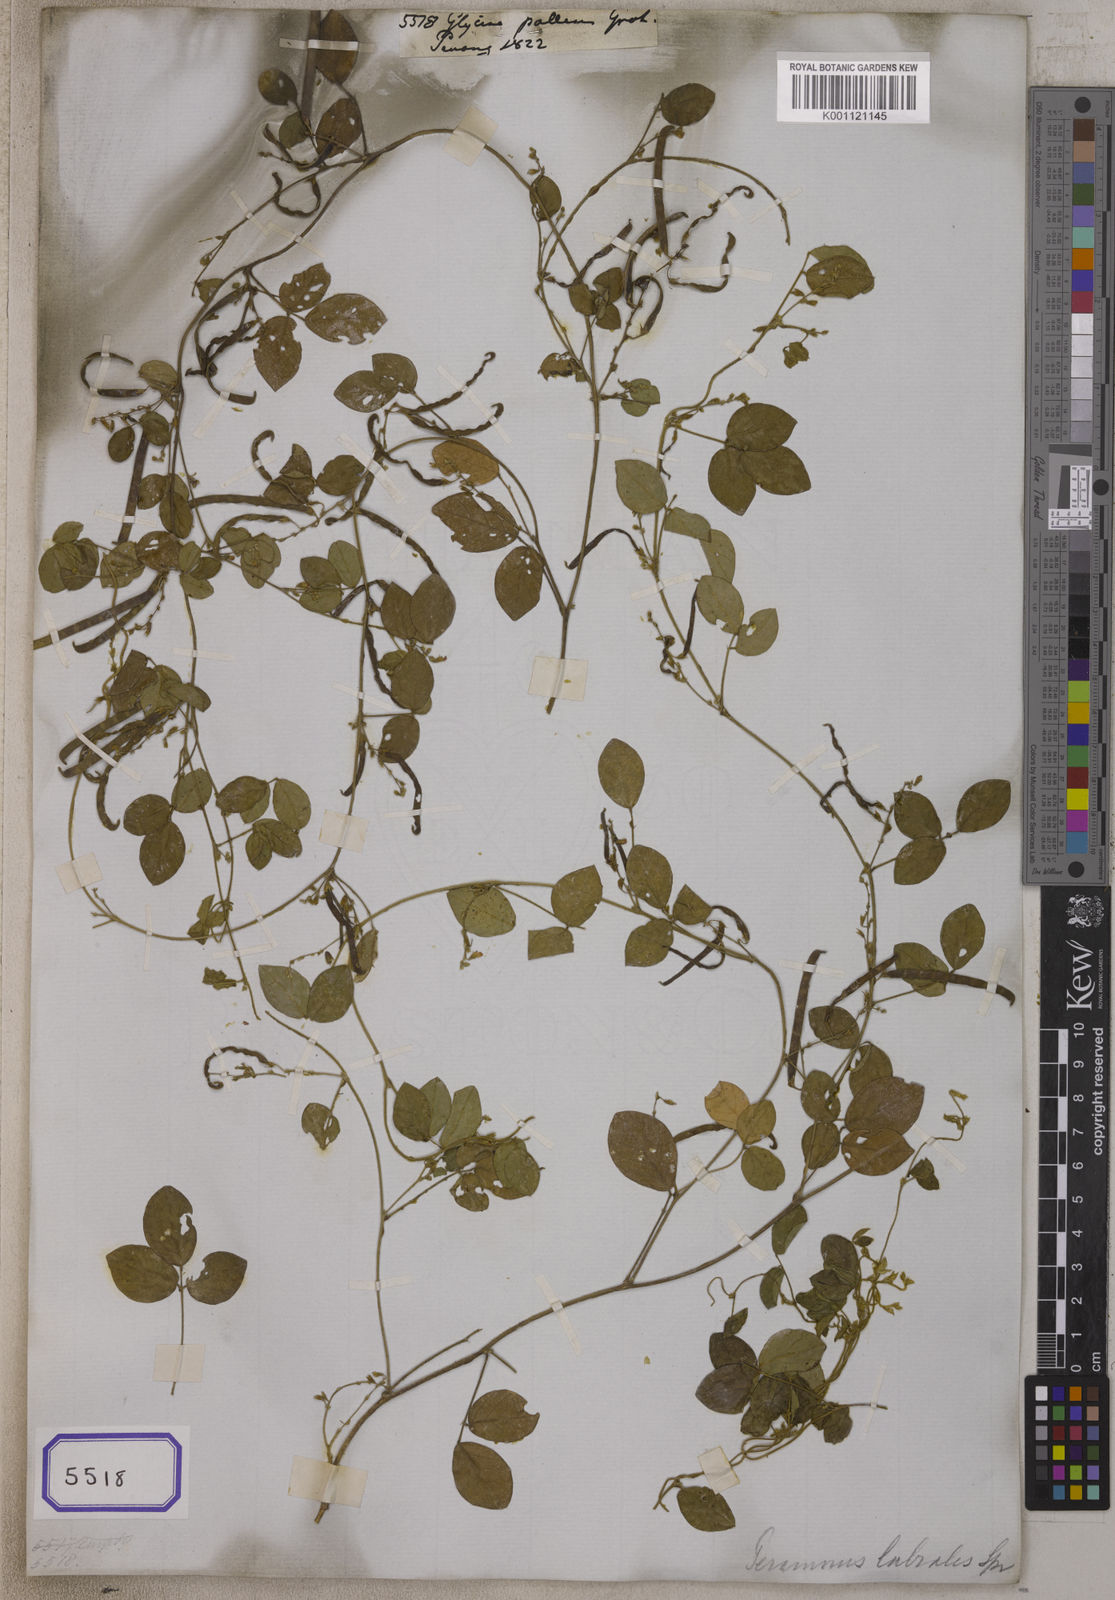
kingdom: Plantae
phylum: Tracheophyta
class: Magnoliopsida
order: Fabales
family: Fabaceae
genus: Teramnus
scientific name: Teramnus labialis
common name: Blue wiss
